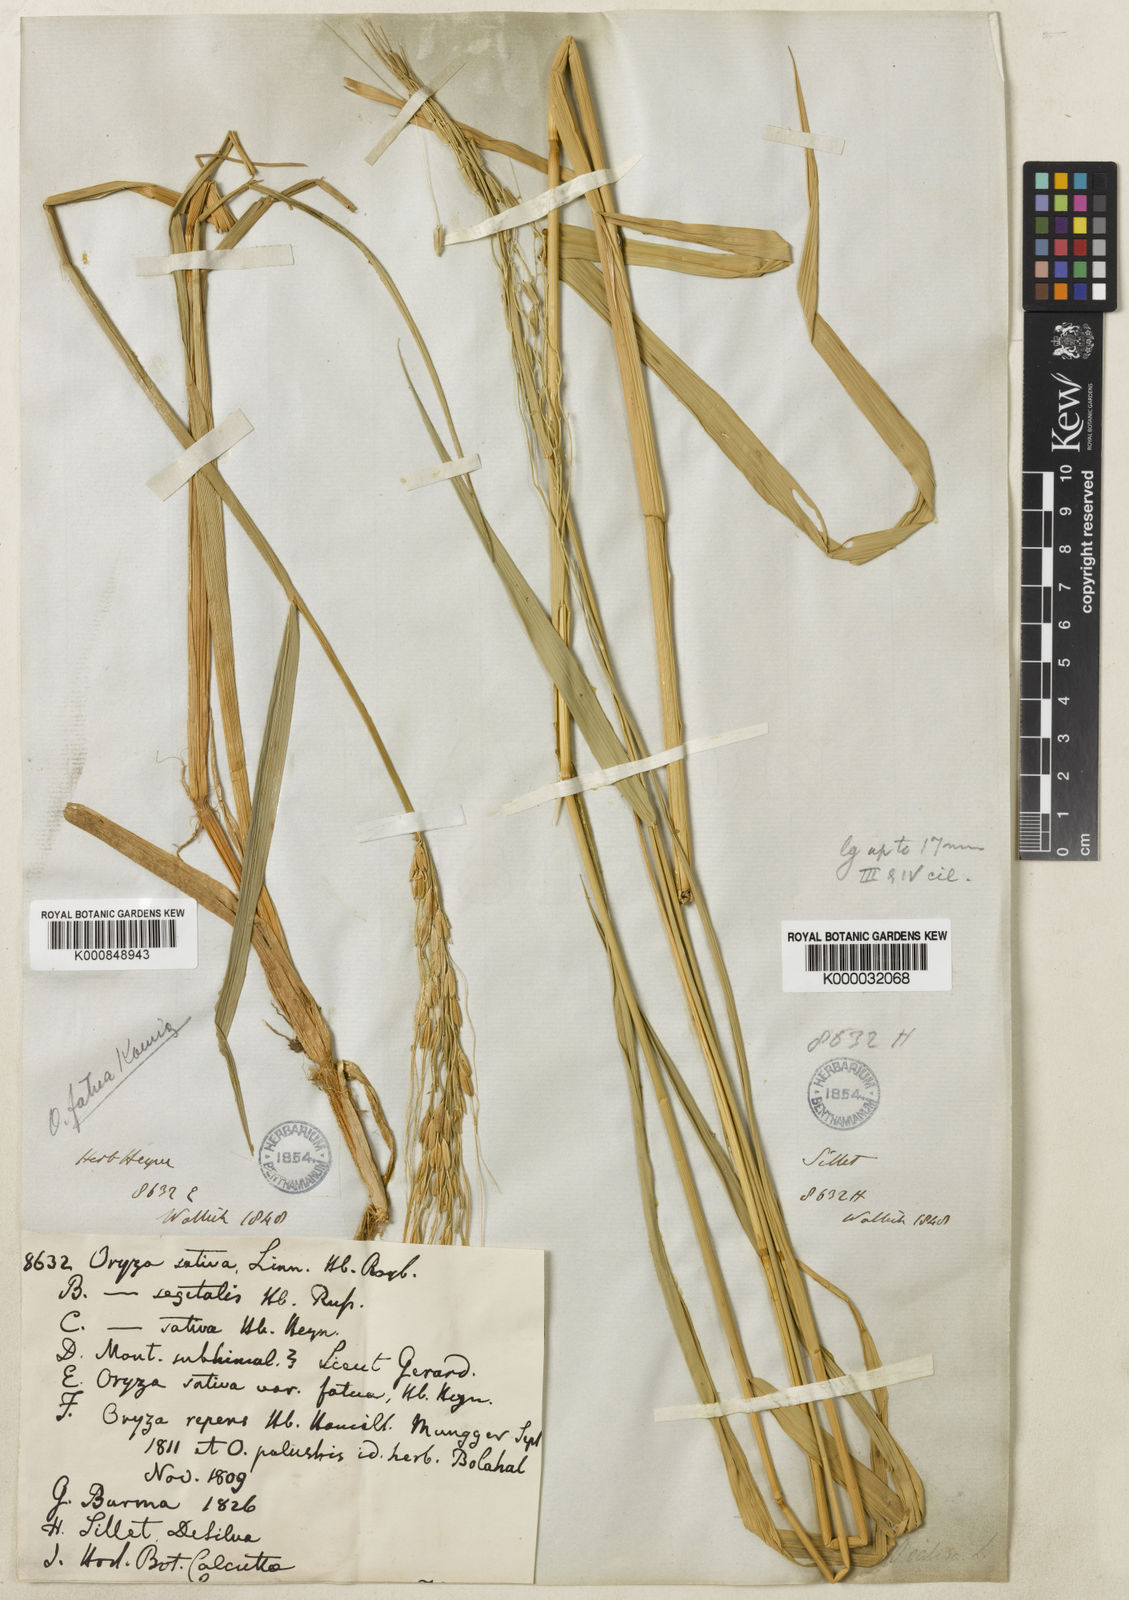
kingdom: Plantae
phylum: Tracheophyta
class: Liliopsida
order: Poales
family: Poaceae
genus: Oryza
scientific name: Oryza rufipogon
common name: Red rice
